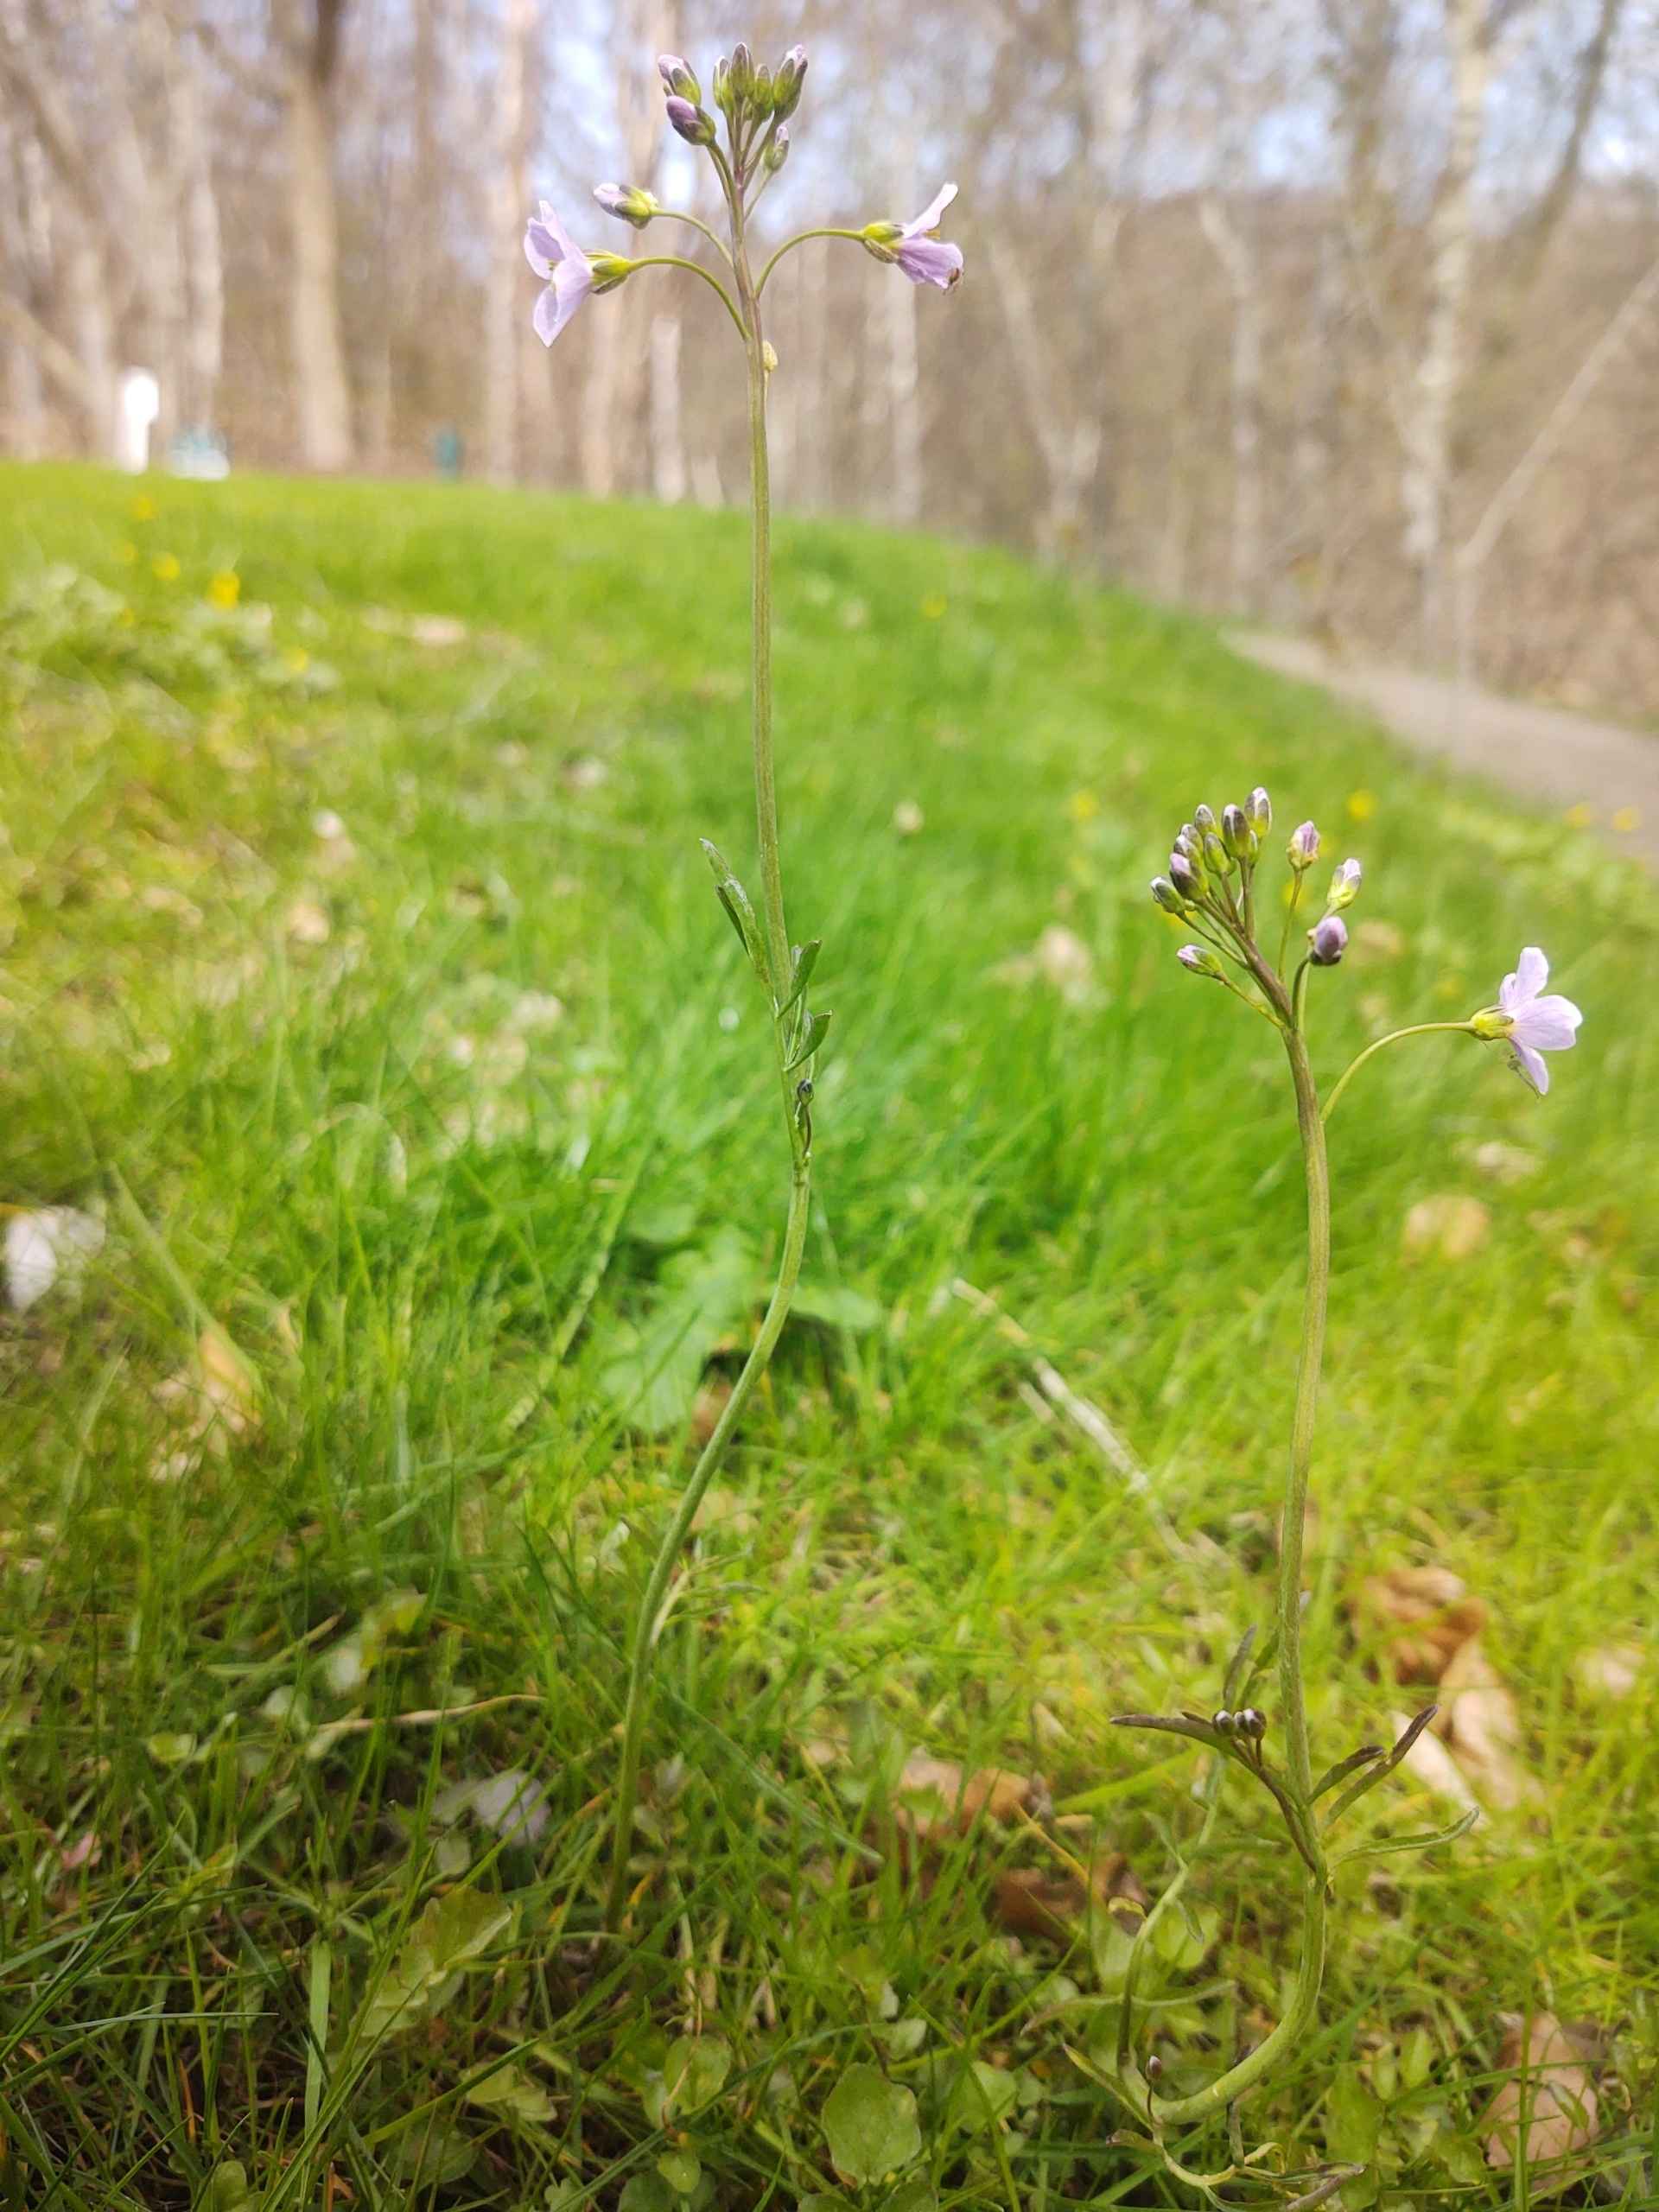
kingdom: Plantae
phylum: Tracheophyta
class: Magnoliopsida
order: Brassicales
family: Brassicaceae
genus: Cardamine
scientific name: Cardamine pratensis
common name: Engkarse
